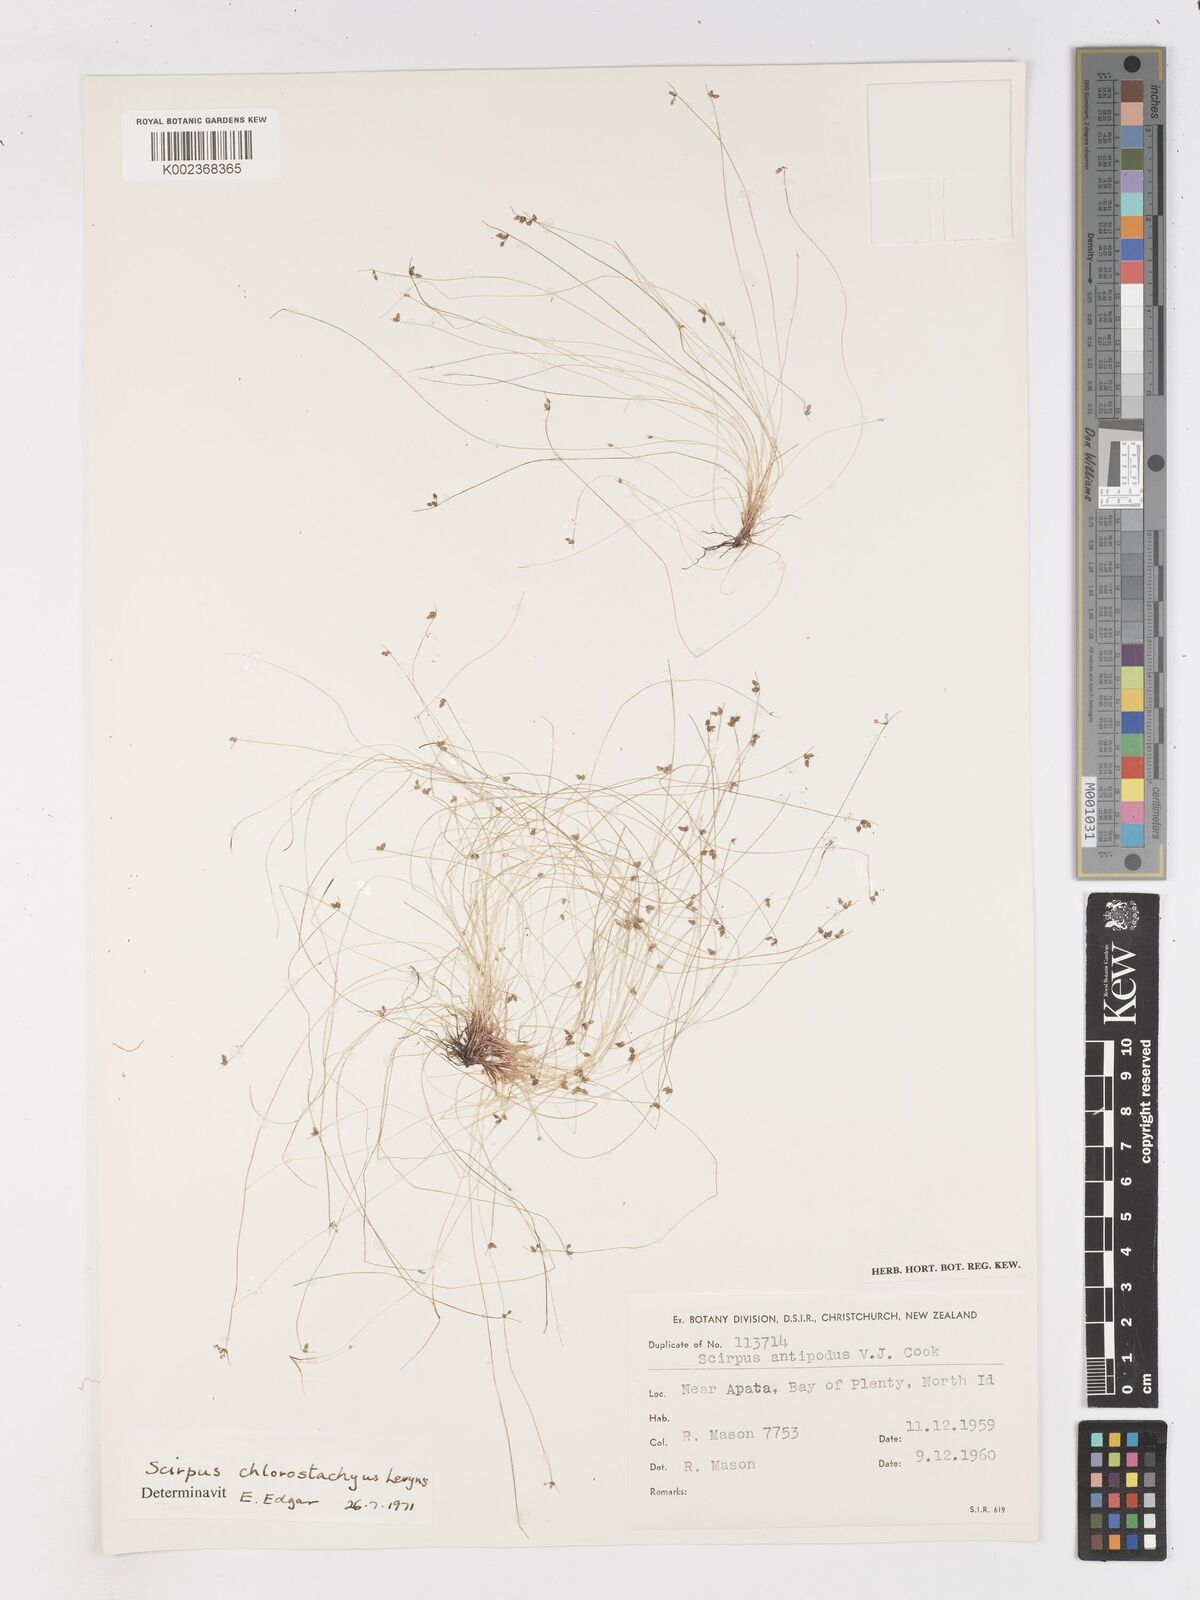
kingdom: Plantae
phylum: Tracheophyta
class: Liliopsida
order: Poales
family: Cyperaceae
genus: Isolepis
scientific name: Isolepis sepulcralis
